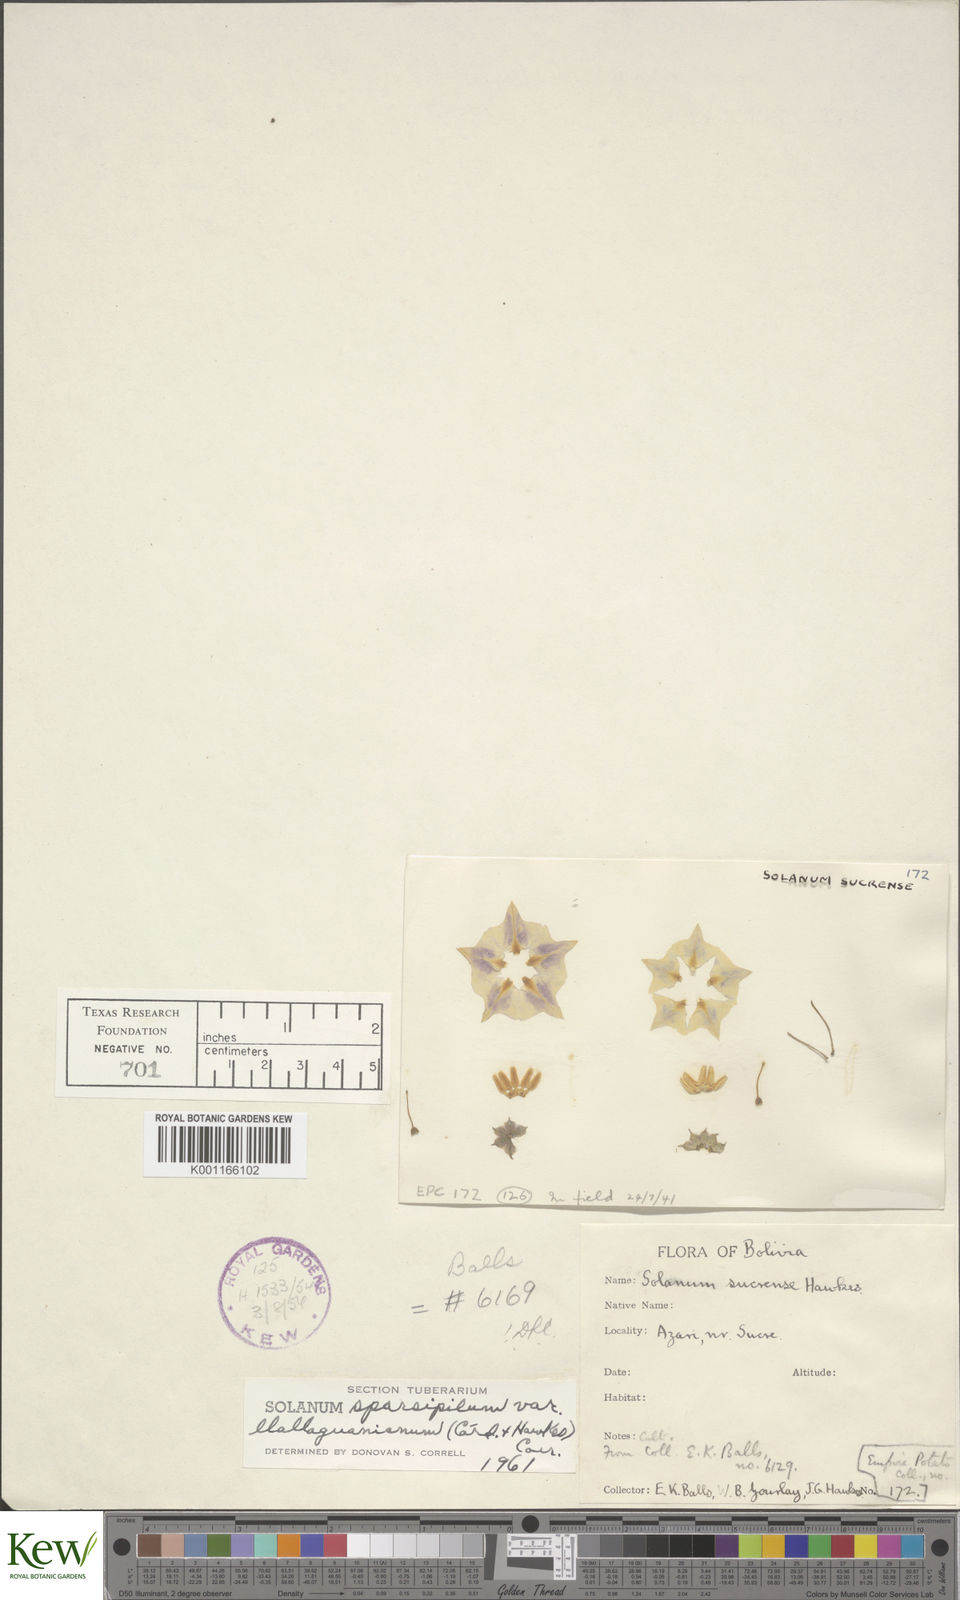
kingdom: Plantae
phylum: Tracheophyta
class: Magnoliopsida
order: Solanales
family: Solanaceae
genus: Solanum
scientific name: Solanum brevicaule
